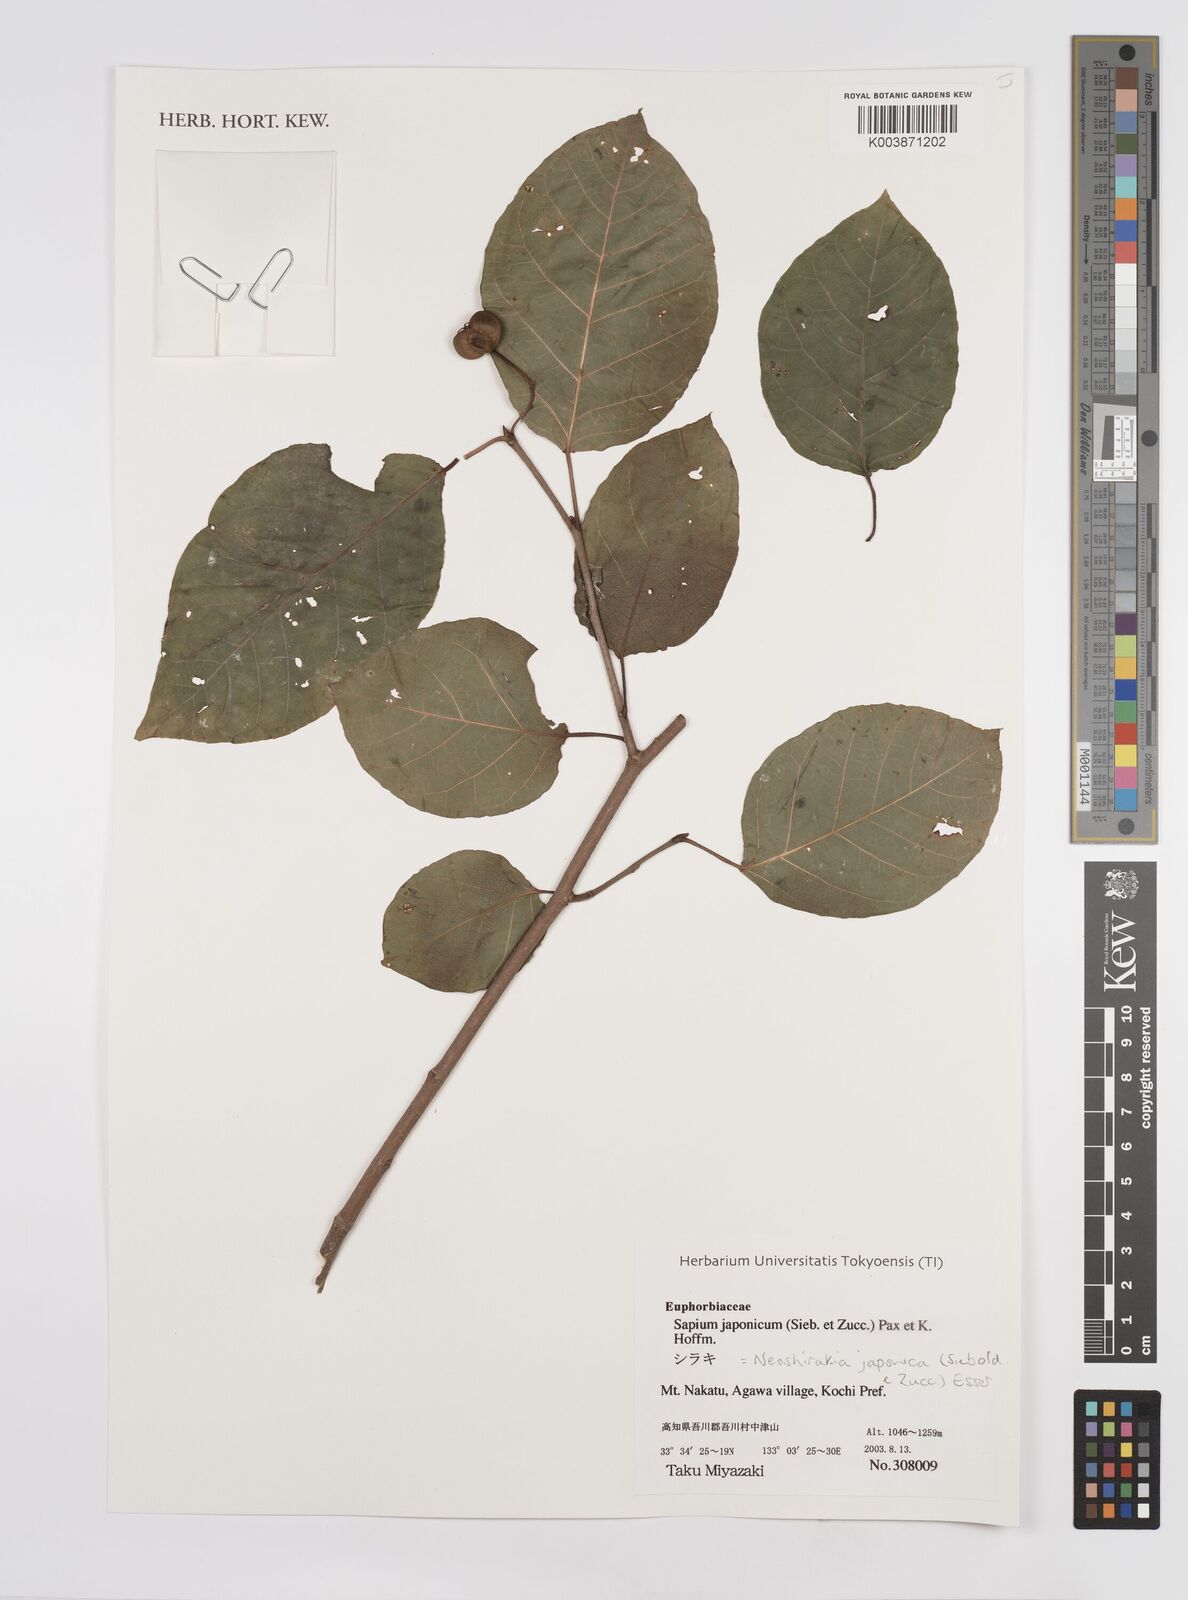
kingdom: Plantae
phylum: Tracheophyta
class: Magnoliopsida
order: Malpighiales
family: Euphorbiaceae
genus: Neoshirakia
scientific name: Neoshirakia japonica
